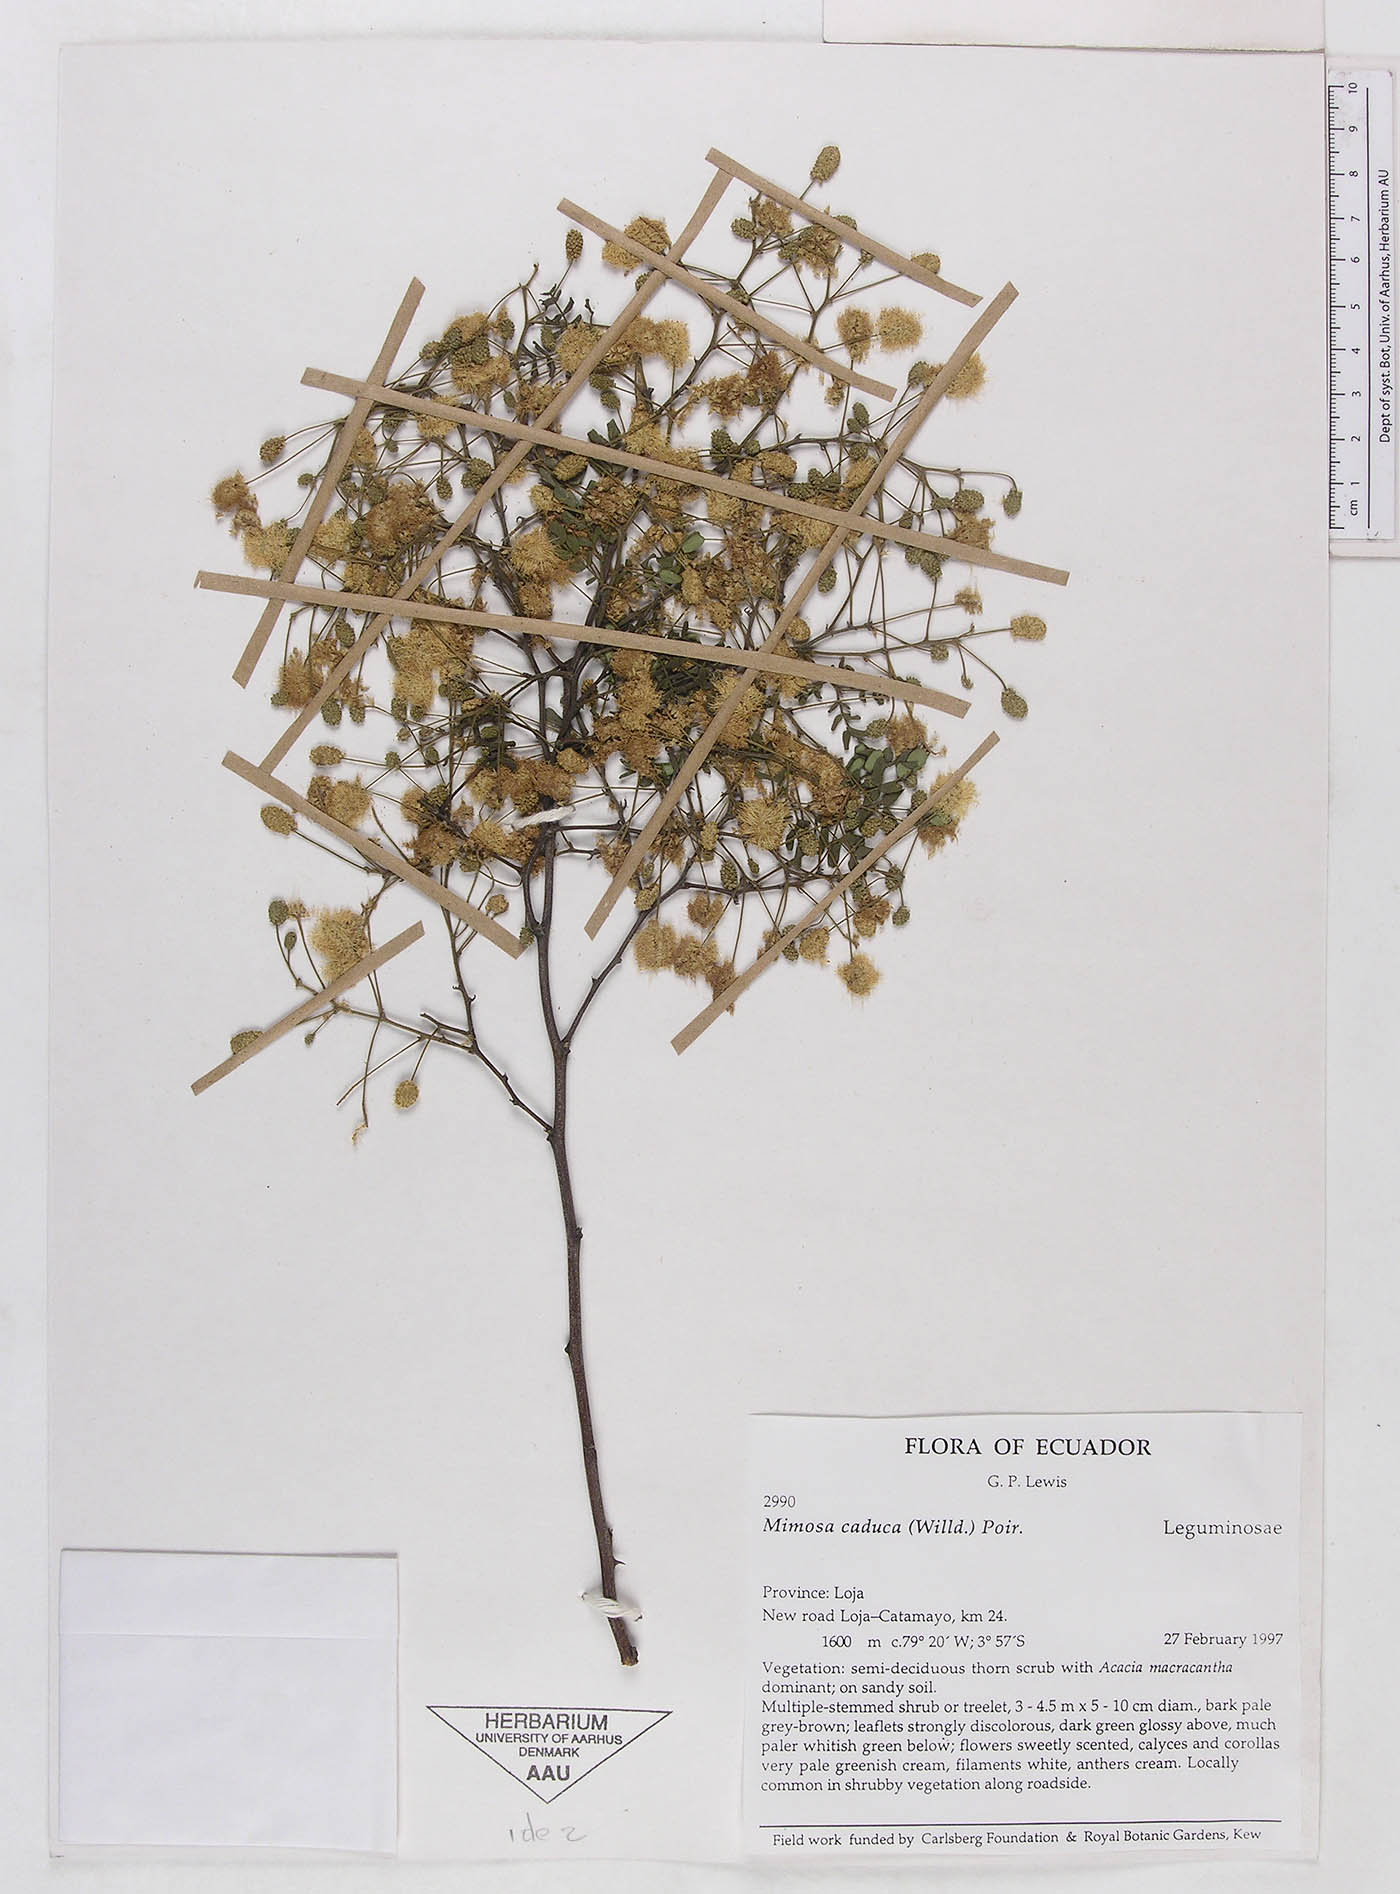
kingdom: Plantae
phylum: Tracheophyta
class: Magnoliopsida
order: Fabales
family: Fabaceae
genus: Mimosa
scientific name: Mimosa caduca
